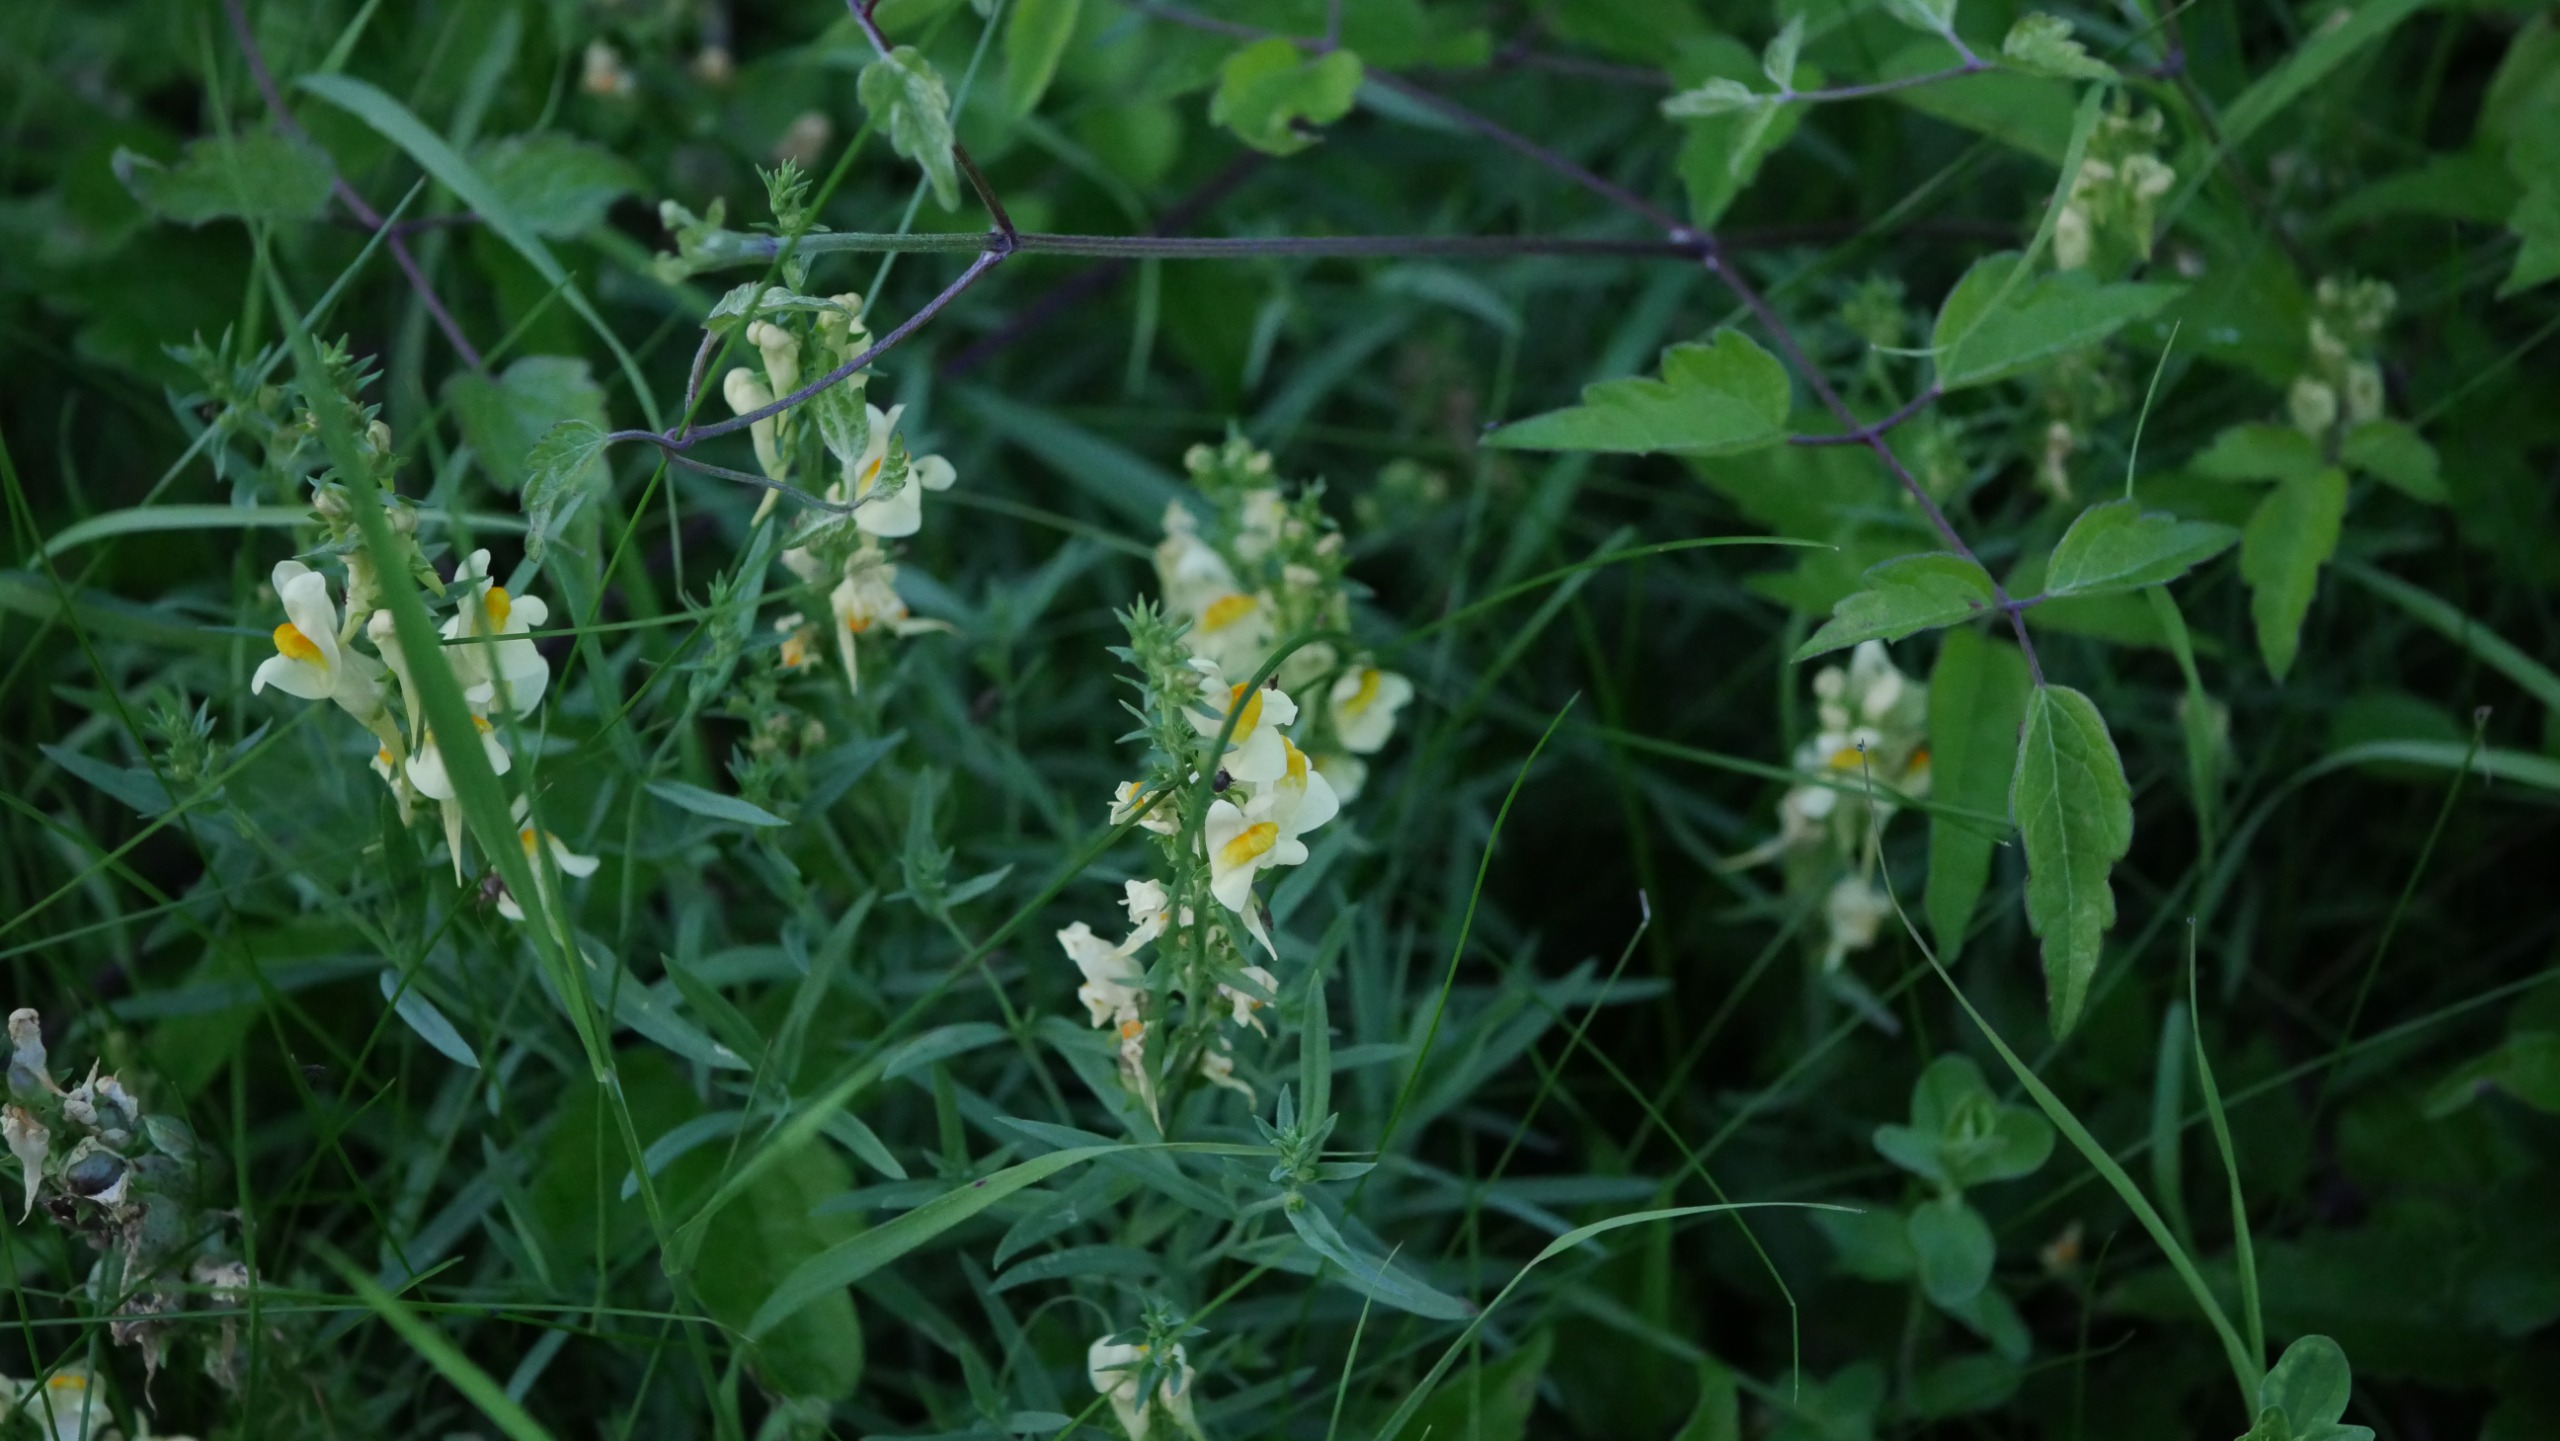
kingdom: Plantae
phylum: Tracheophyta
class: Magnoliopsida
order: Lamiales
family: Plantaginaceae
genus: Linaria
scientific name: Linaria vulgaris
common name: Almindelig torskemund
